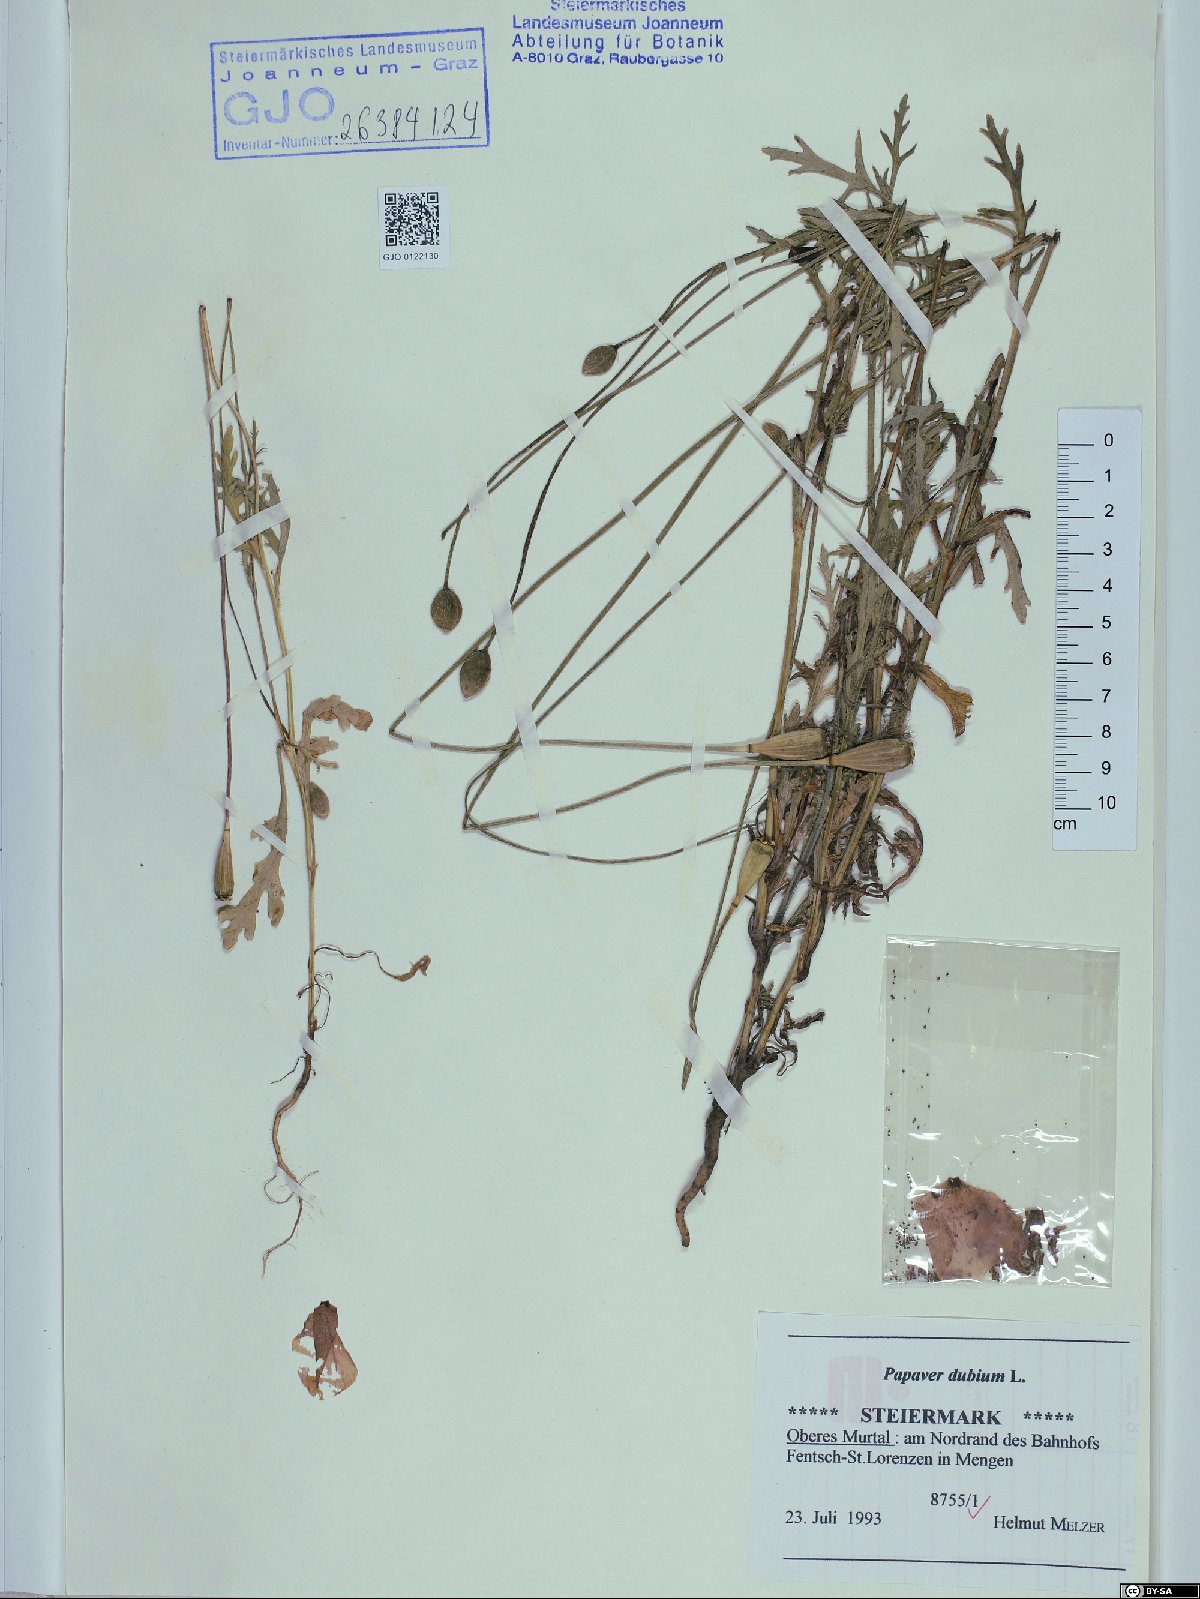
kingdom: Plantae
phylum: Tracheophyta
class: Magnoliopsida
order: Ranunculales
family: Papaveraceae
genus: Papaver
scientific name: Papaver dubium
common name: Long-headed poppy
